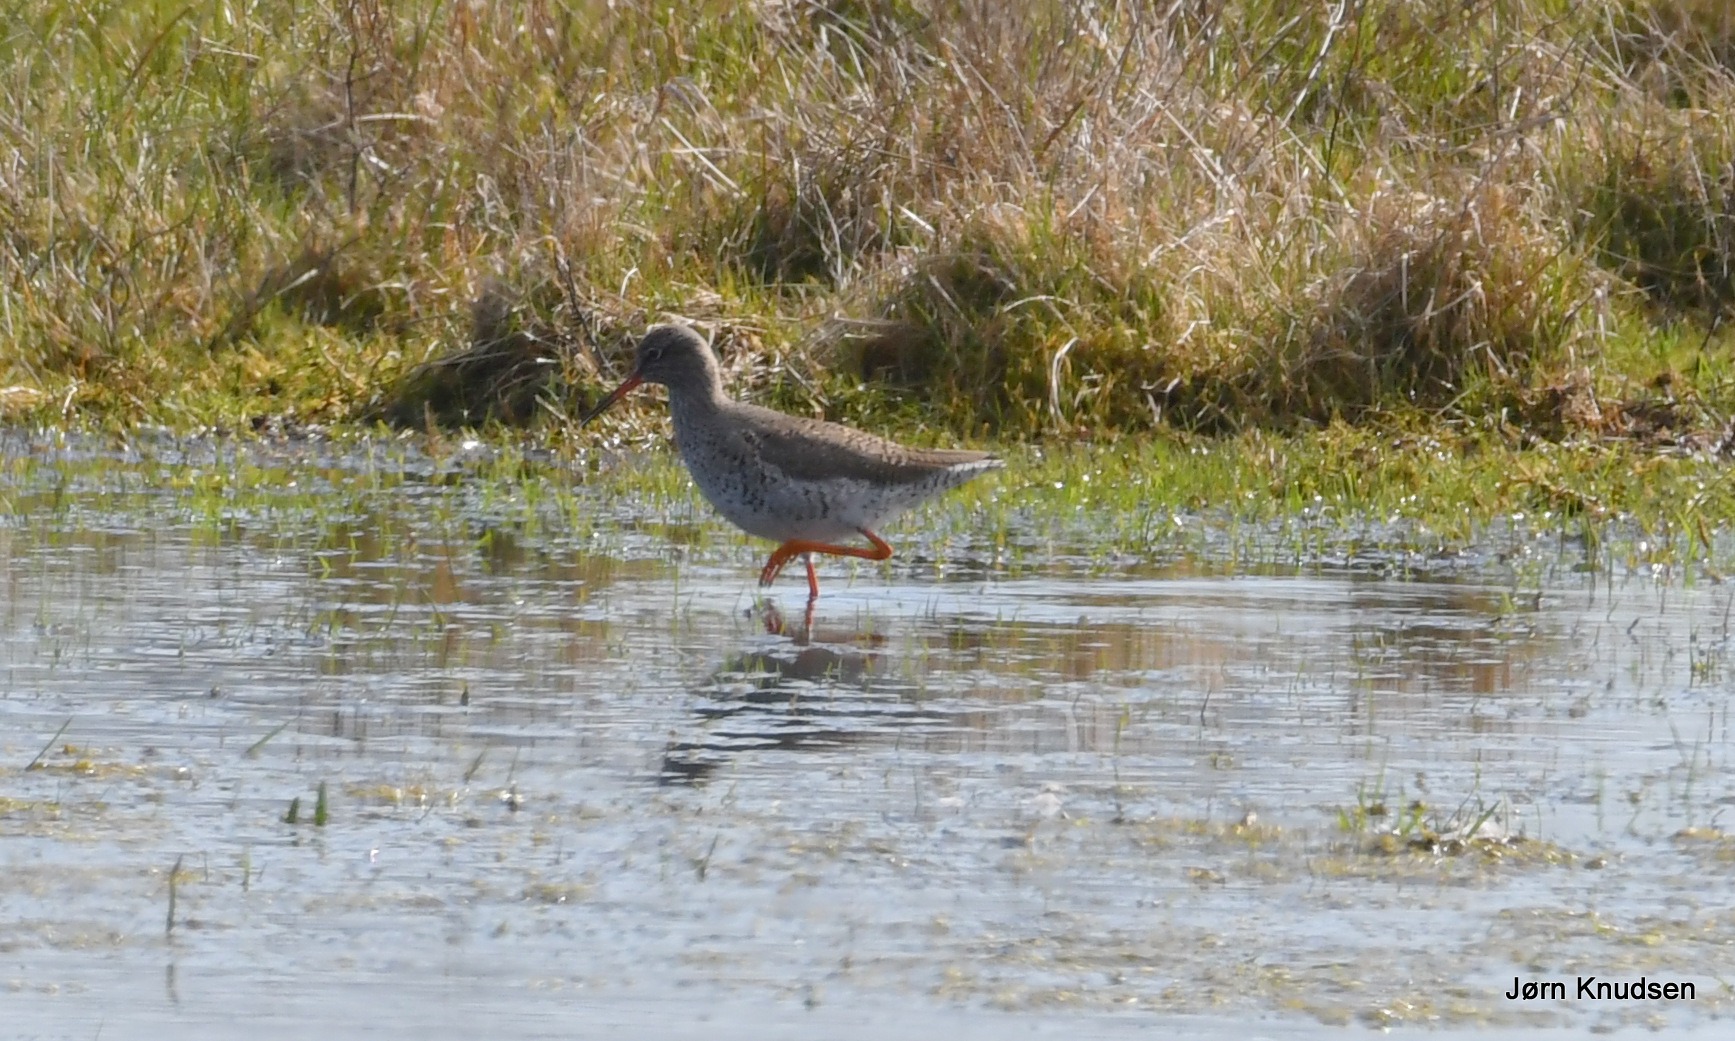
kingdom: Animalia
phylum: Chordata
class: Aves
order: Charadriiformes
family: Scolopacidae
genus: Tringa
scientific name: Tringa totanus
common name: Rødben
